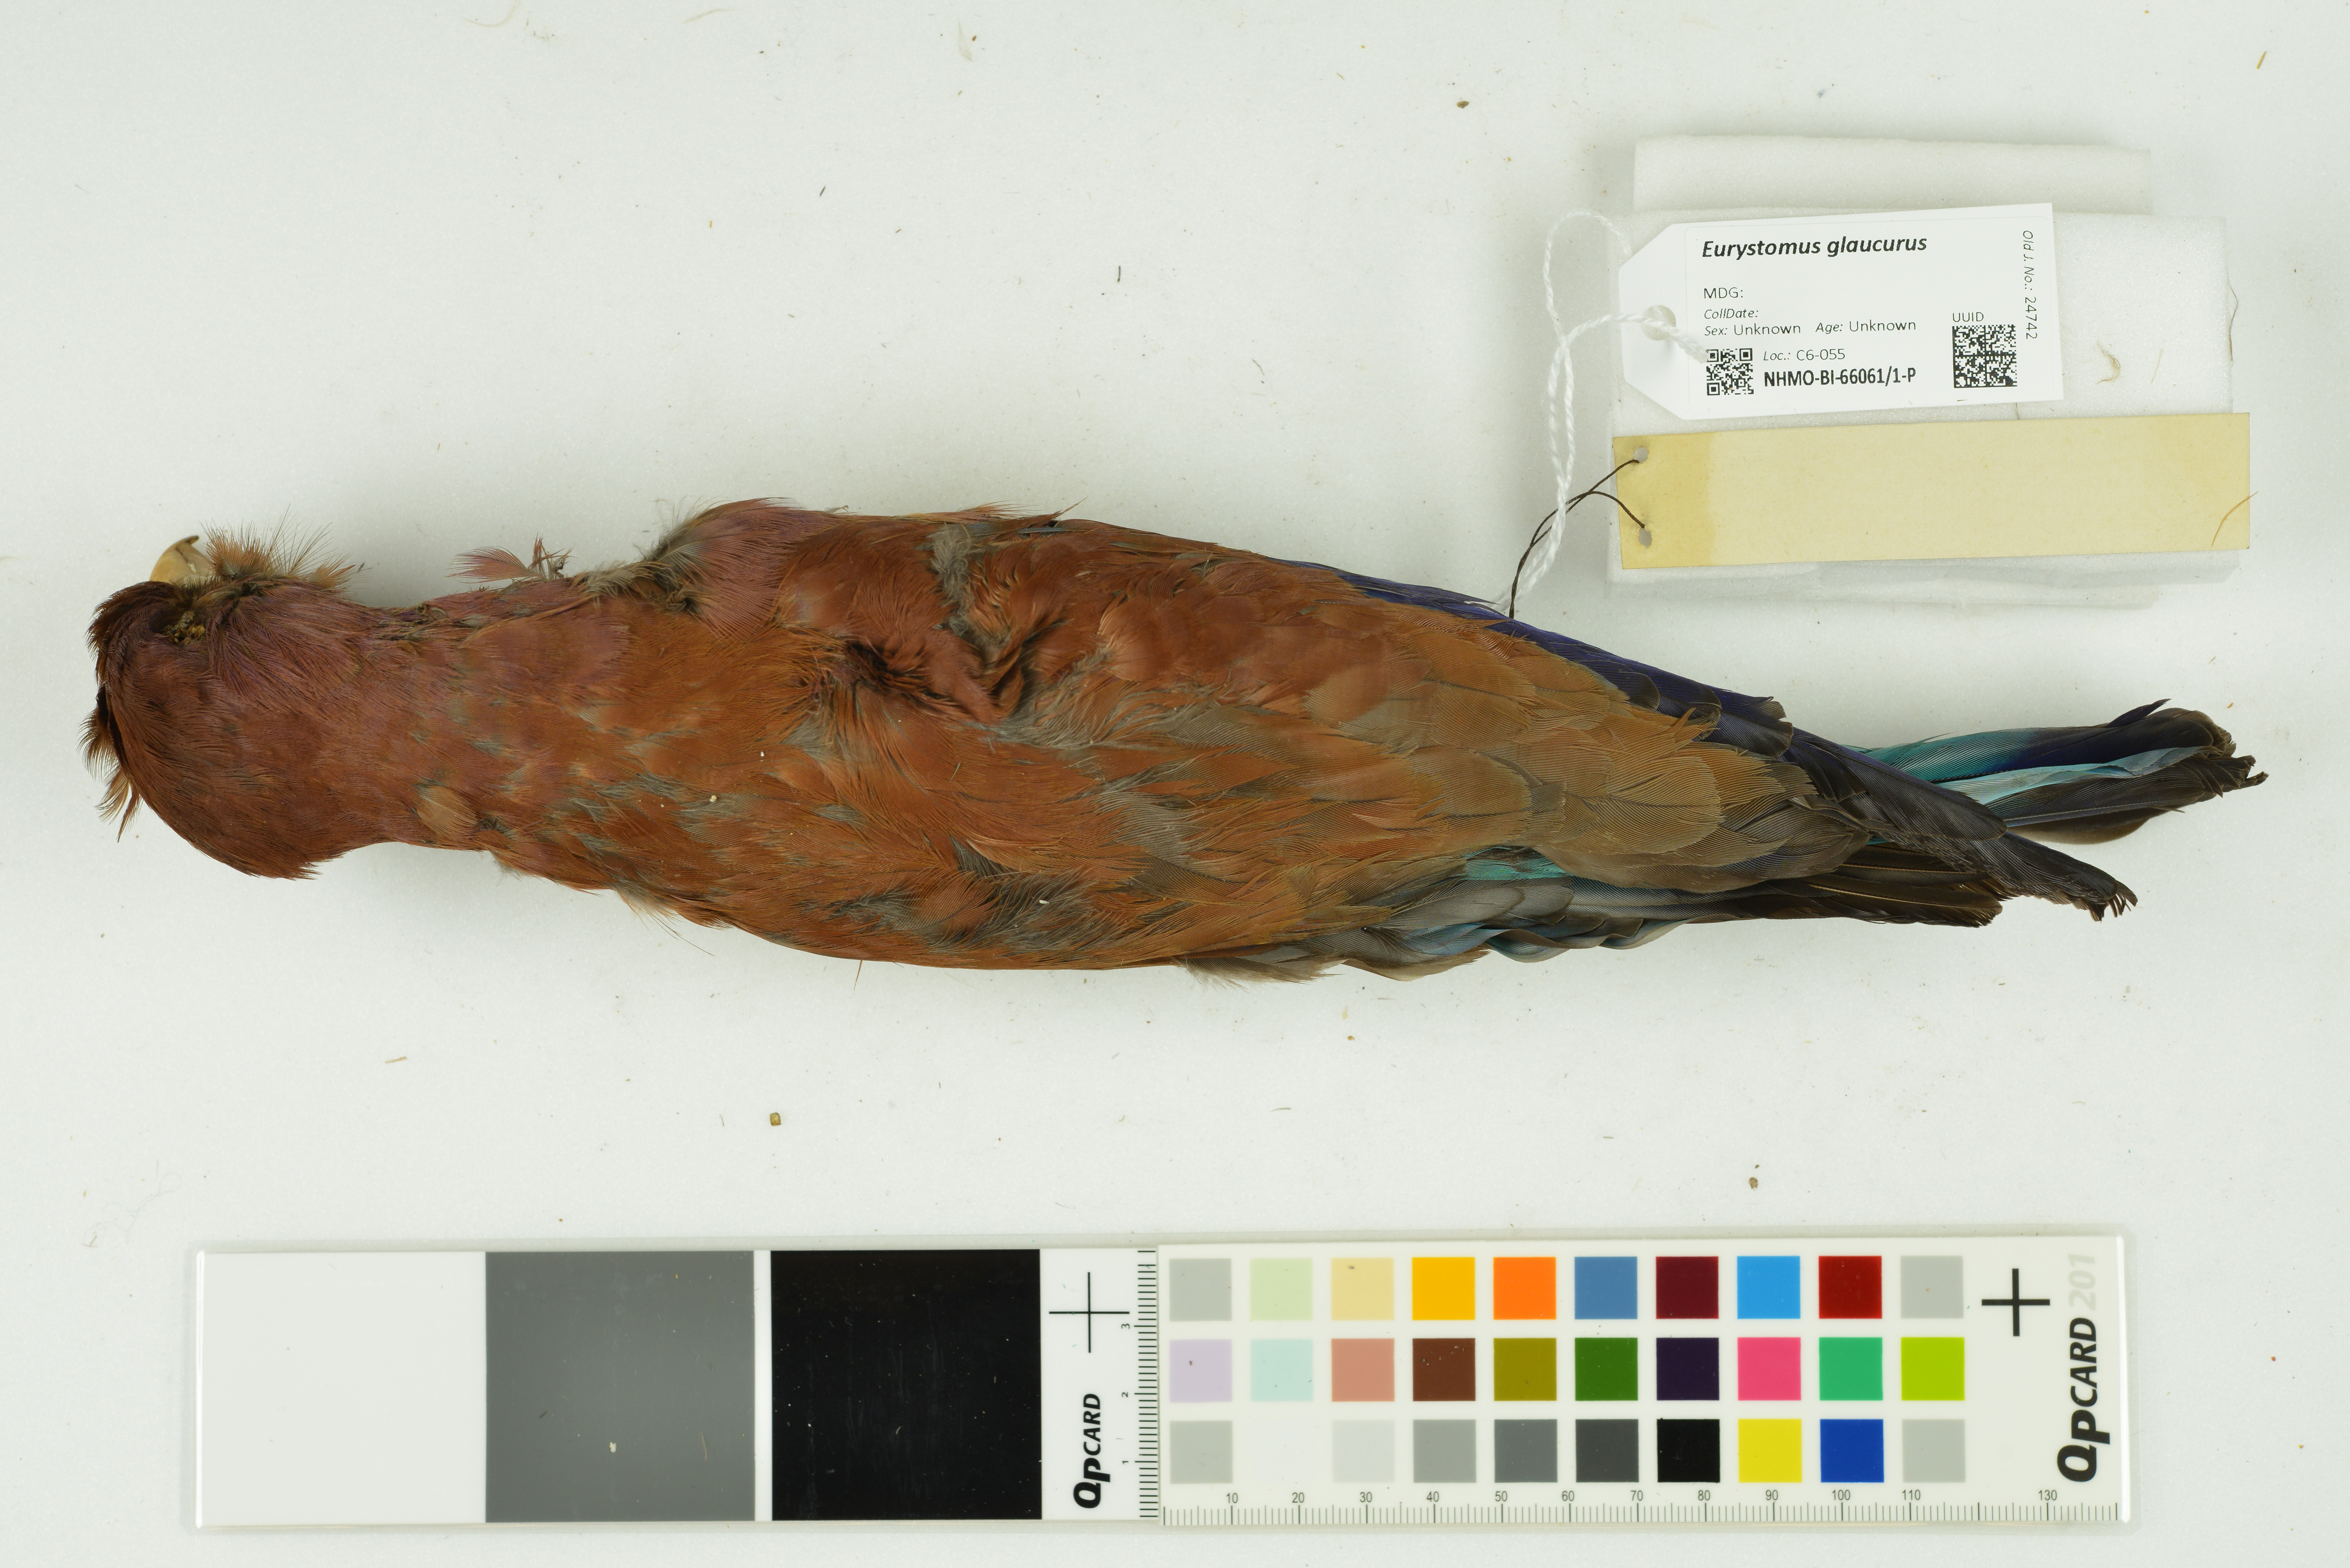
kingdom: Animalia
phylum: Chordata
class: Aves
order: Coraciiformes
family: Coraciidae
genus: Eurystomus
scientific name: Eurystomus glaucurus
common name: Broad-billed roller
